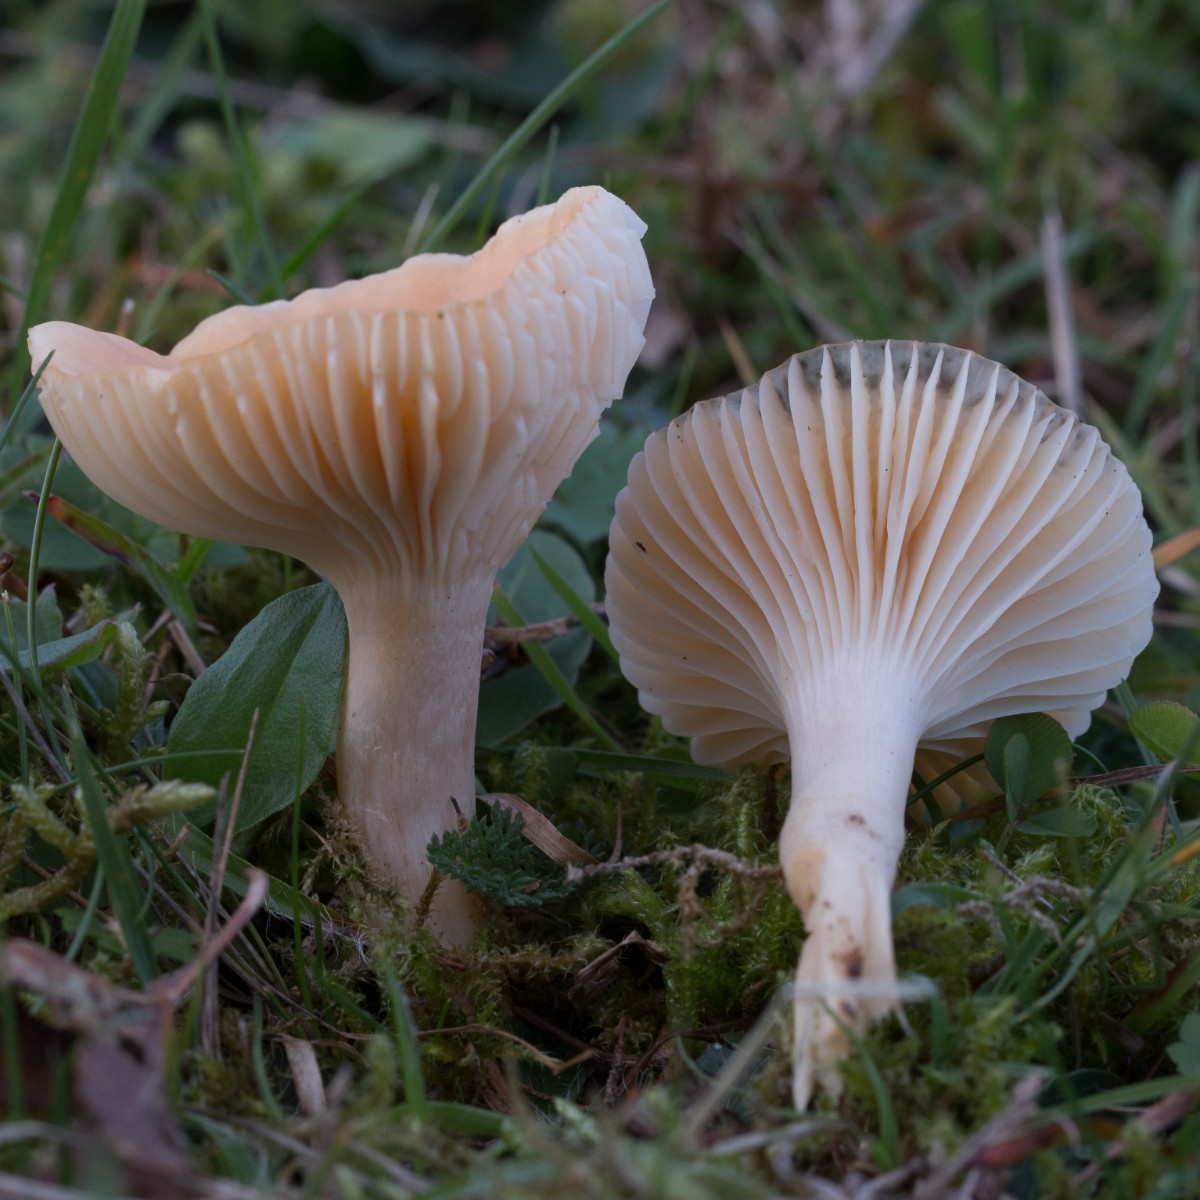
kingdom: Fungi
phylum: Basidiomycota
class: Agaricomycetes
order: Agaricales
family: Hygrophoraceae
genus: Cuphophyllus
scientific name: Cuphophyllus pratensis
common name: eng-vokshat
